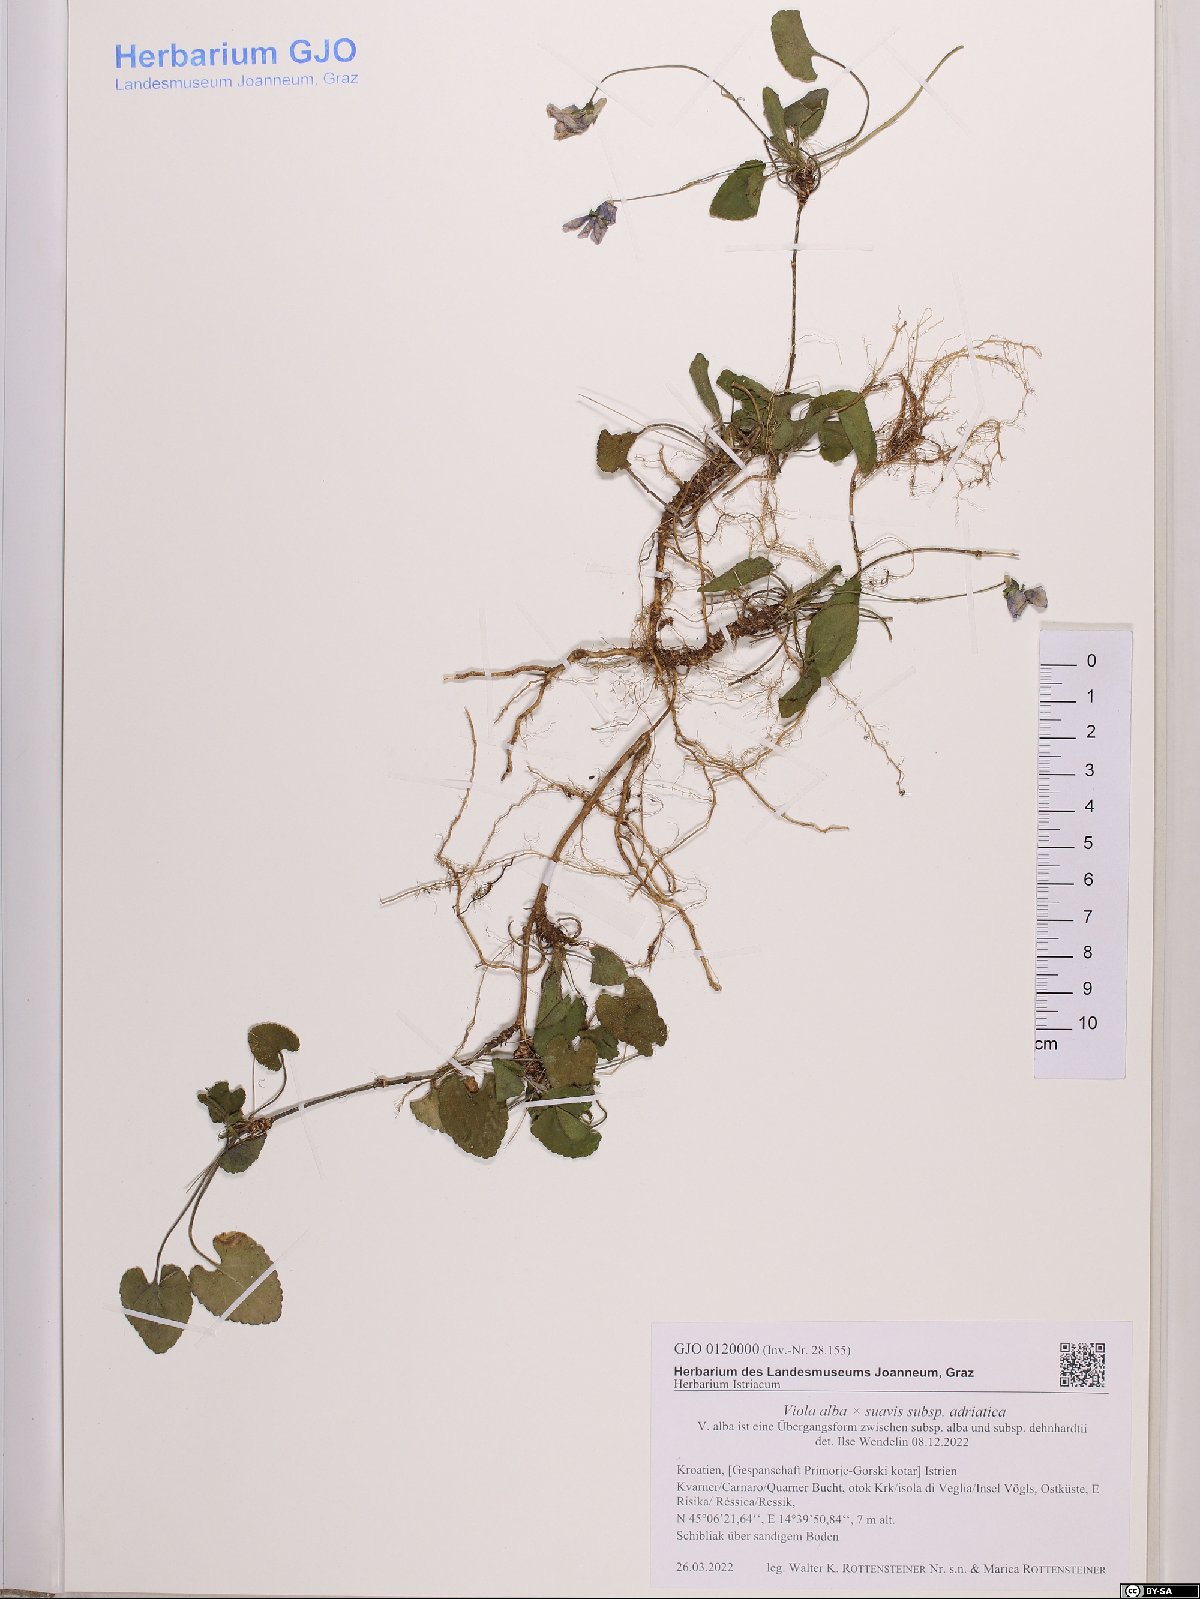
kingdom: Plantae
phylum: Tracheophyta
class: Magnoliopsida
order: Malpighiales
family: Violaceae
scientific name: Violaceae
